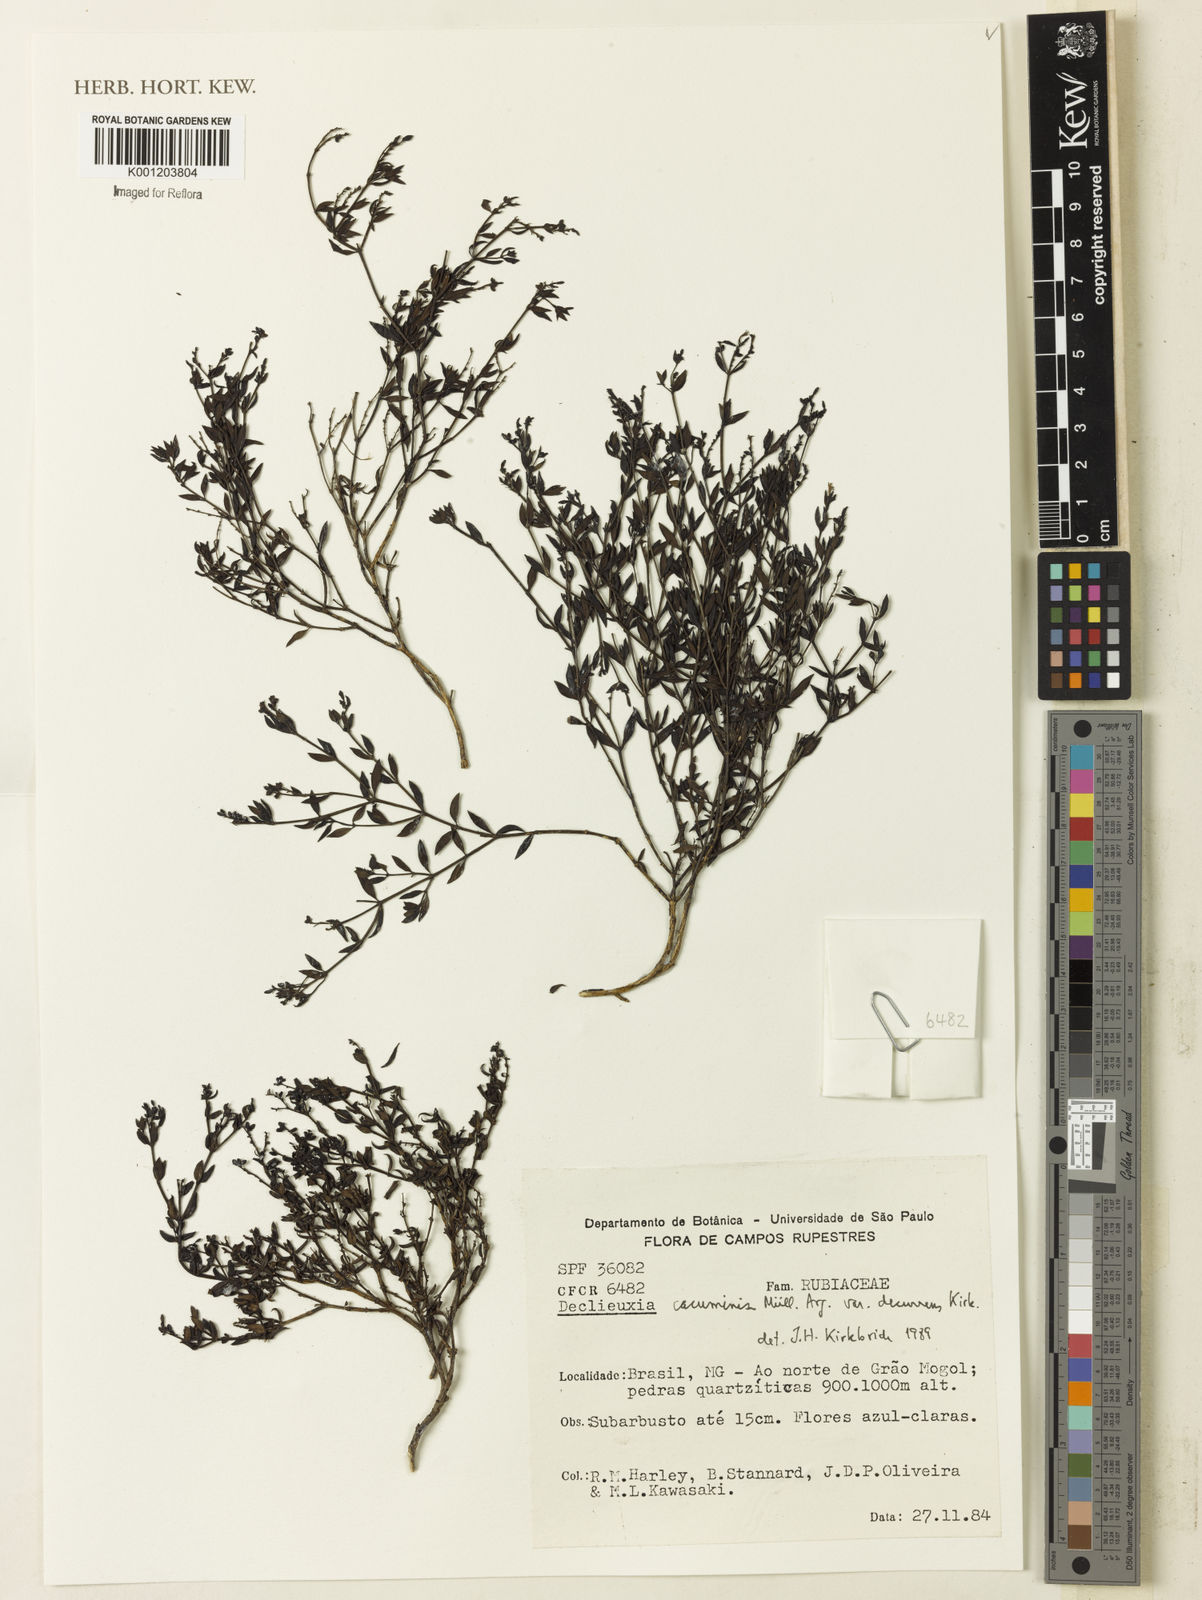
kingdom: Plantae
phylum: Tracheophyta
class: Magnoliopsida
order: Gentianales
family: Rubiaceae
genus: Declieuxia
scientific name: Declieuxia
